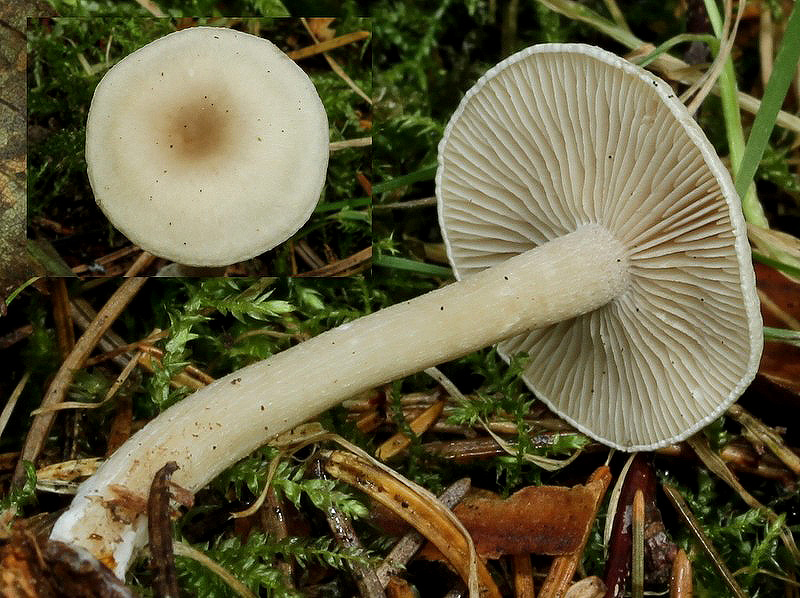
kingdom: Fungi
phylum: Basidiomycota
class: Agaricomycetes
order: Agaricales
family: Tricholomataceae
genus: Clitocybe
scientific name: Clitocybe fragrans
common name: vellugtende tragthat
